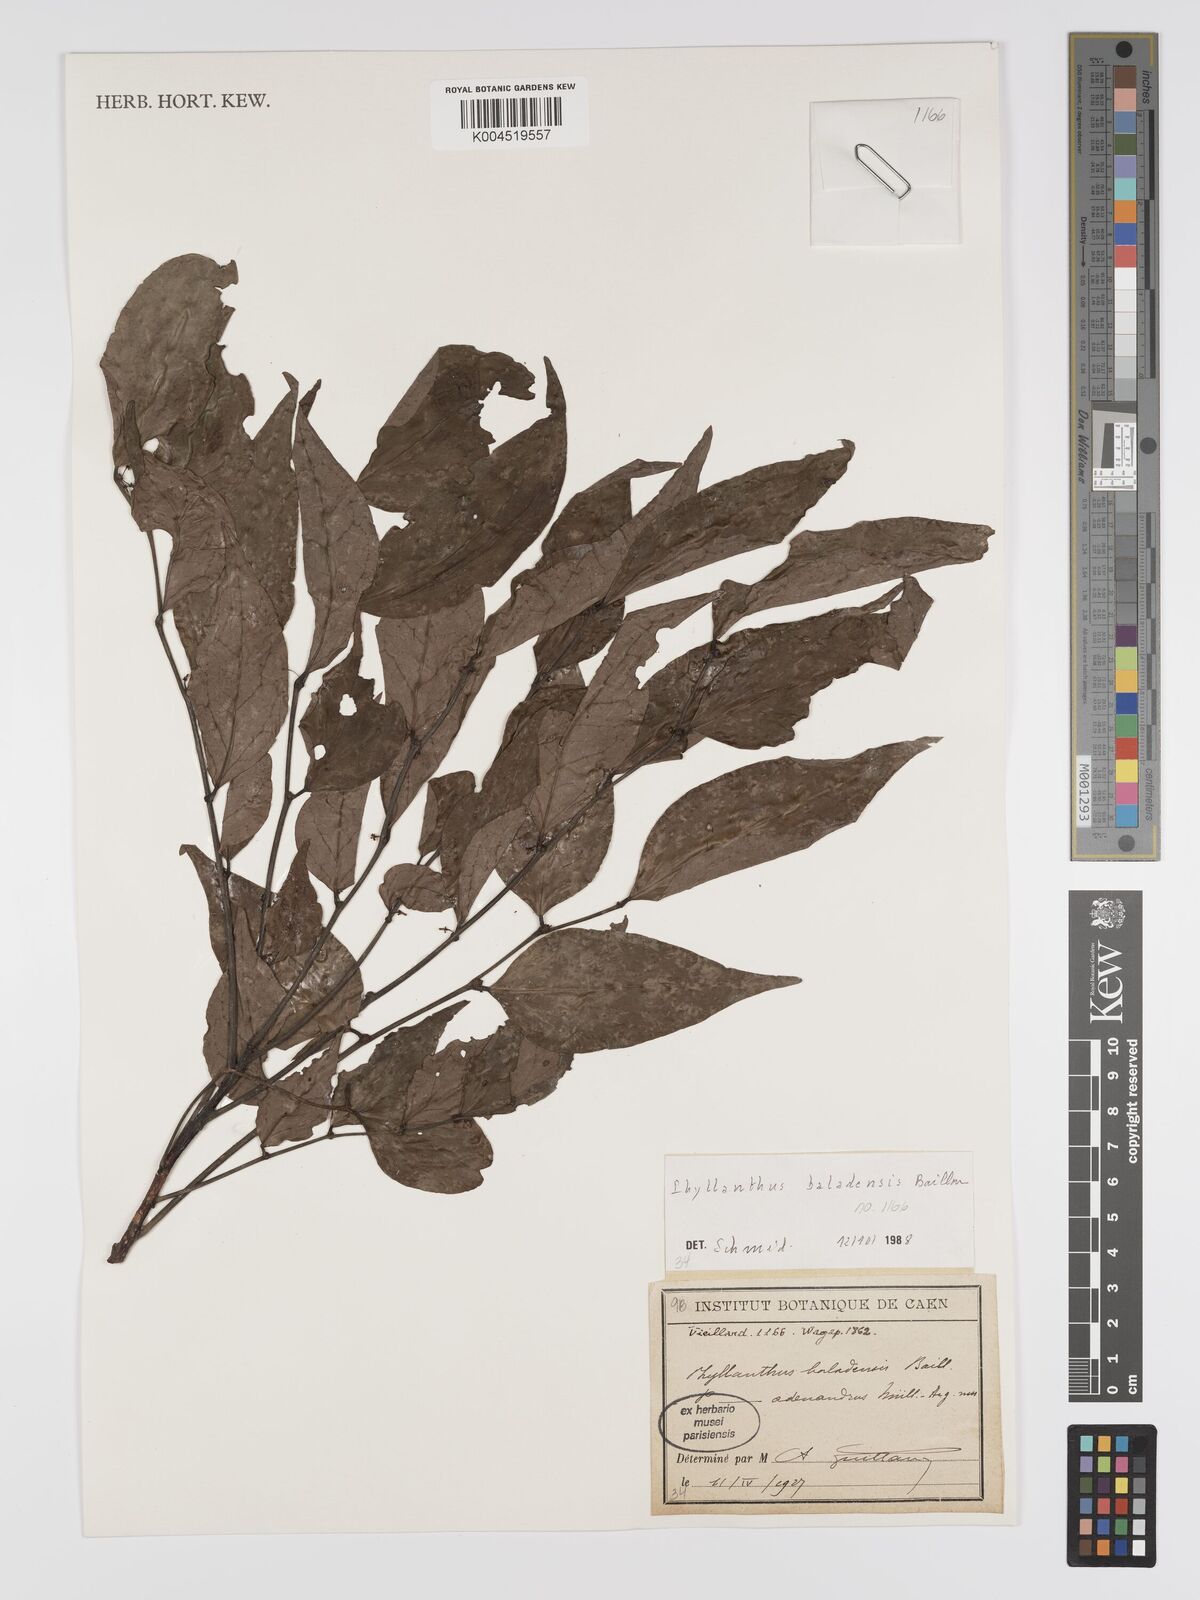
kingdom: Plantae
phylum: Tracheophyta
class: Magnoliopsida
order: Malpighiales
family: Phyllanthaceae
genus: Phyllanthus
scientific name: Phyllanthus baladensis
